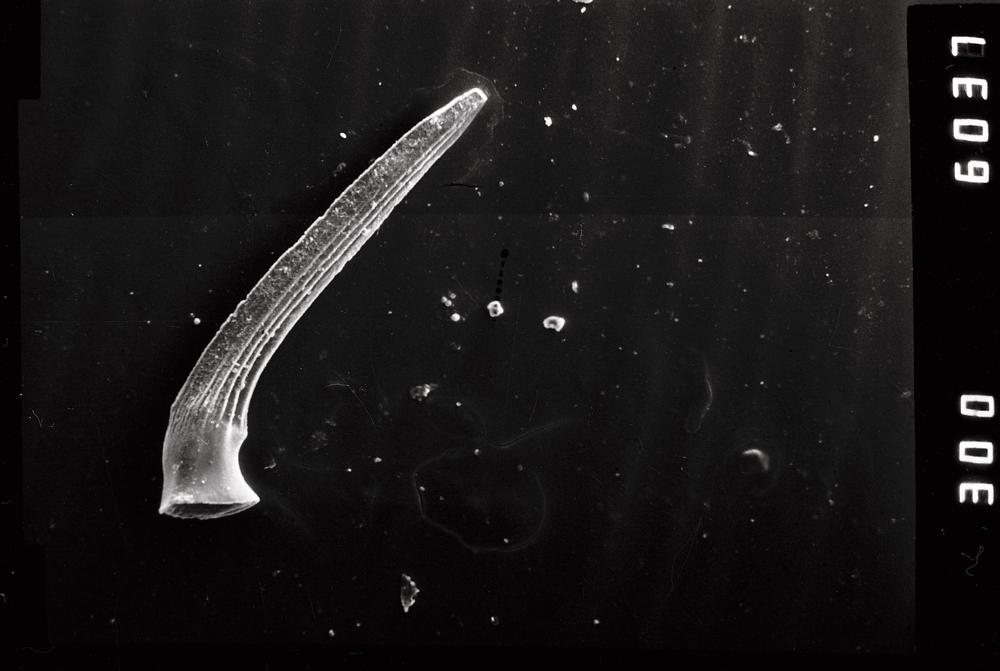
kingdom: Animalia
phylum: Chordata
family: Strachanognathidae
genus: Decoriconus
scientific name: Decoriconus
